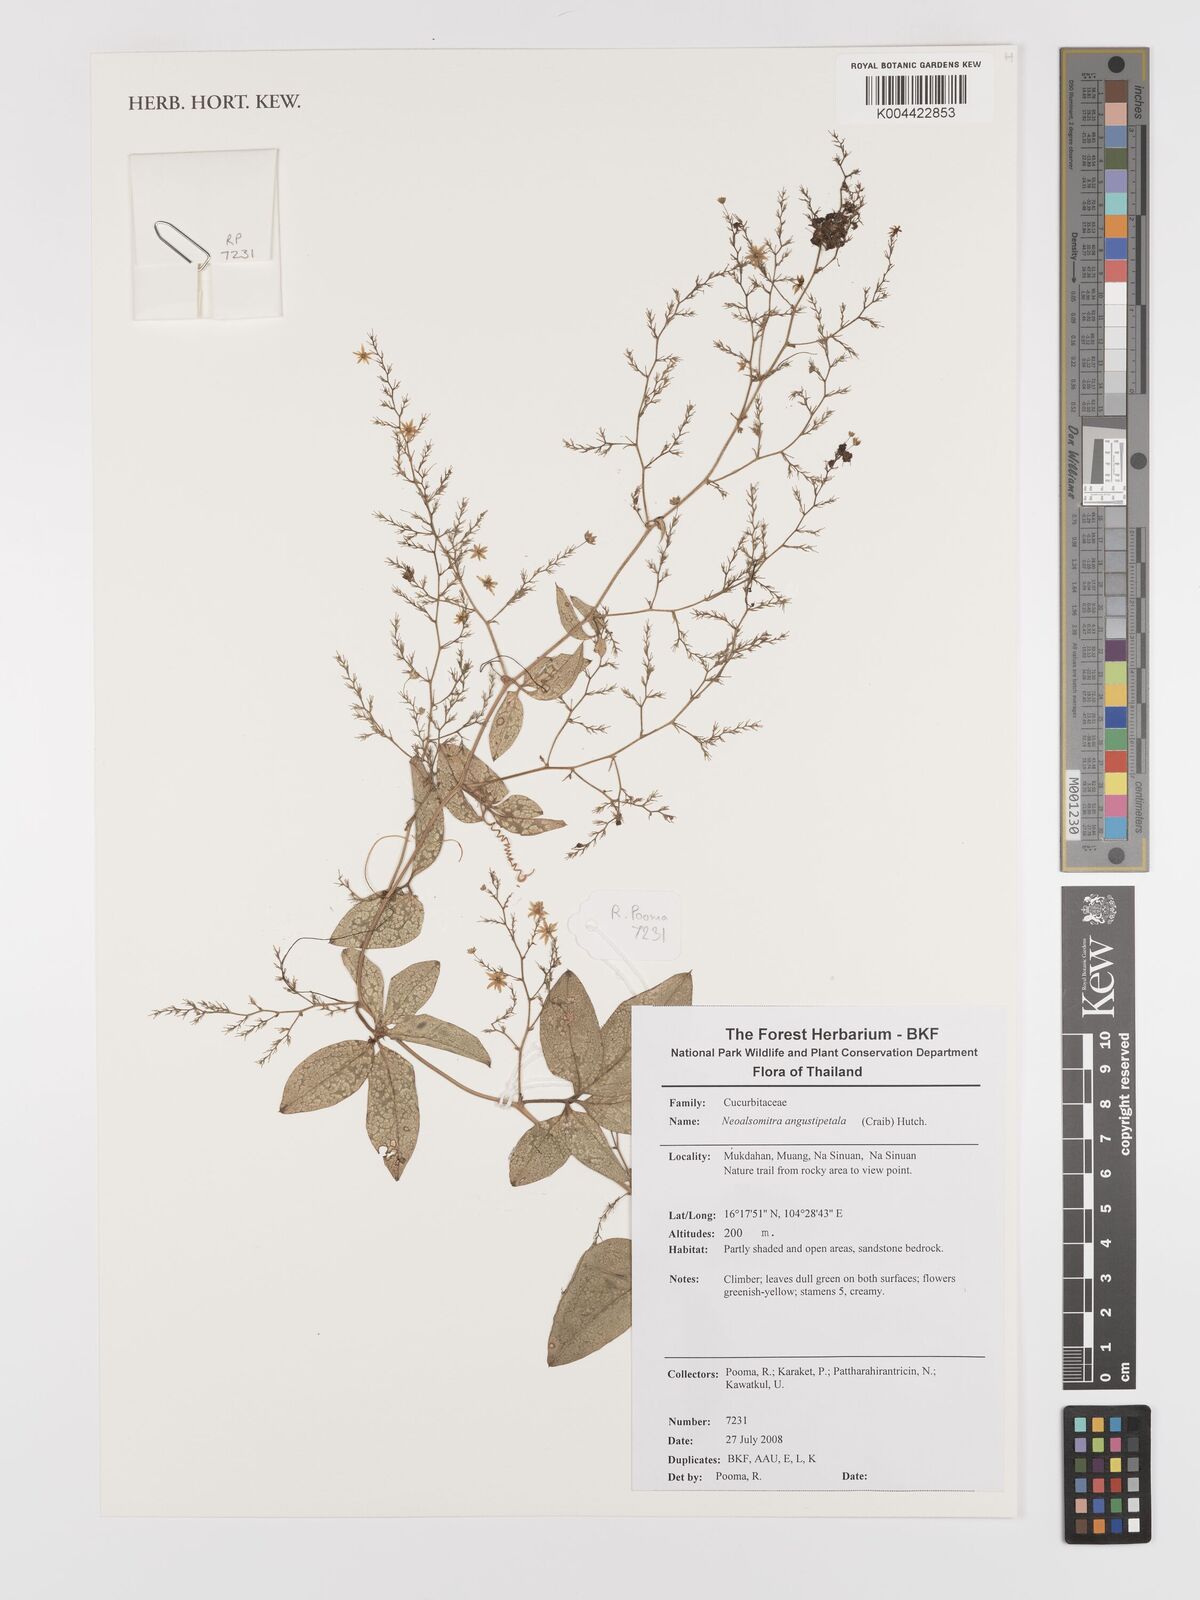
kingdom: Plantae
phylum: Tracheophyta
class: Magnoliopsida
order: Cucurbitales
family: Cucurbitaceae
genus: Neoalsomitra
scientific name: Neoalsomitra angustipetala
